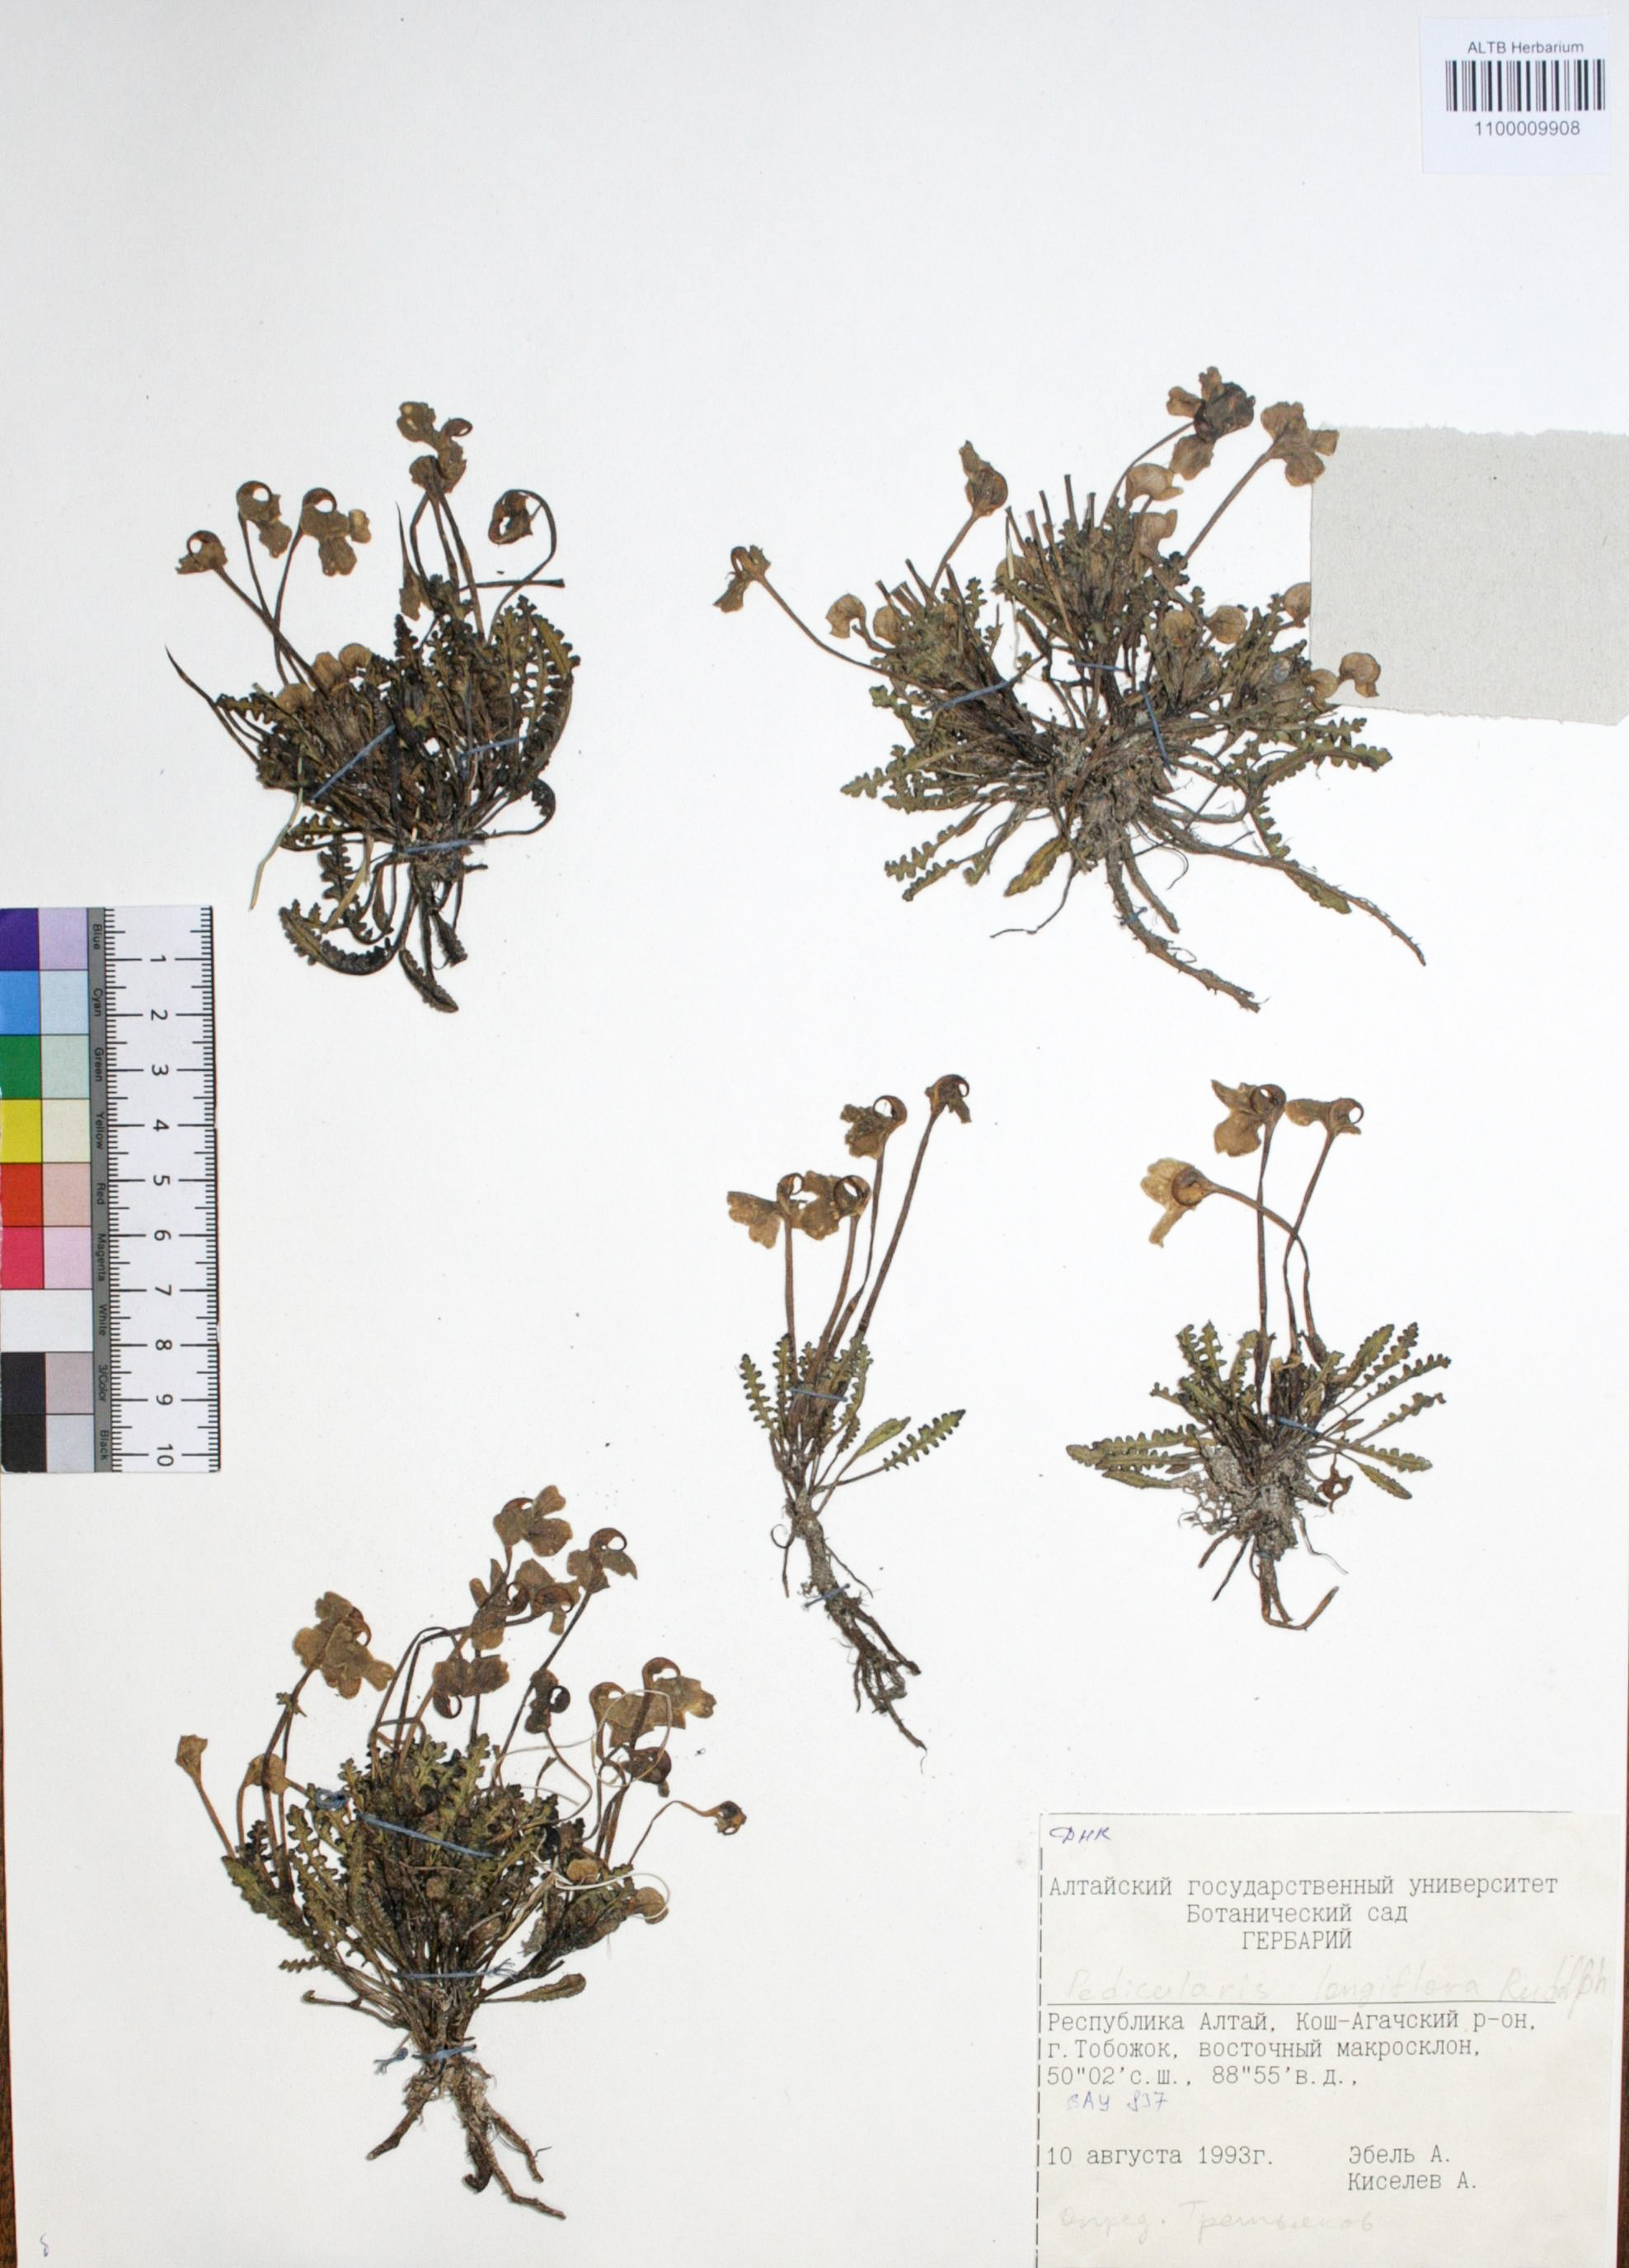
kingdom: Plantae
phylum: Tracheophyta
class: Magnoliopsida
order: Lamiales
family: Orobanchaceae
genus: Pedicularis
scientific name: Pedicularis longiflora
